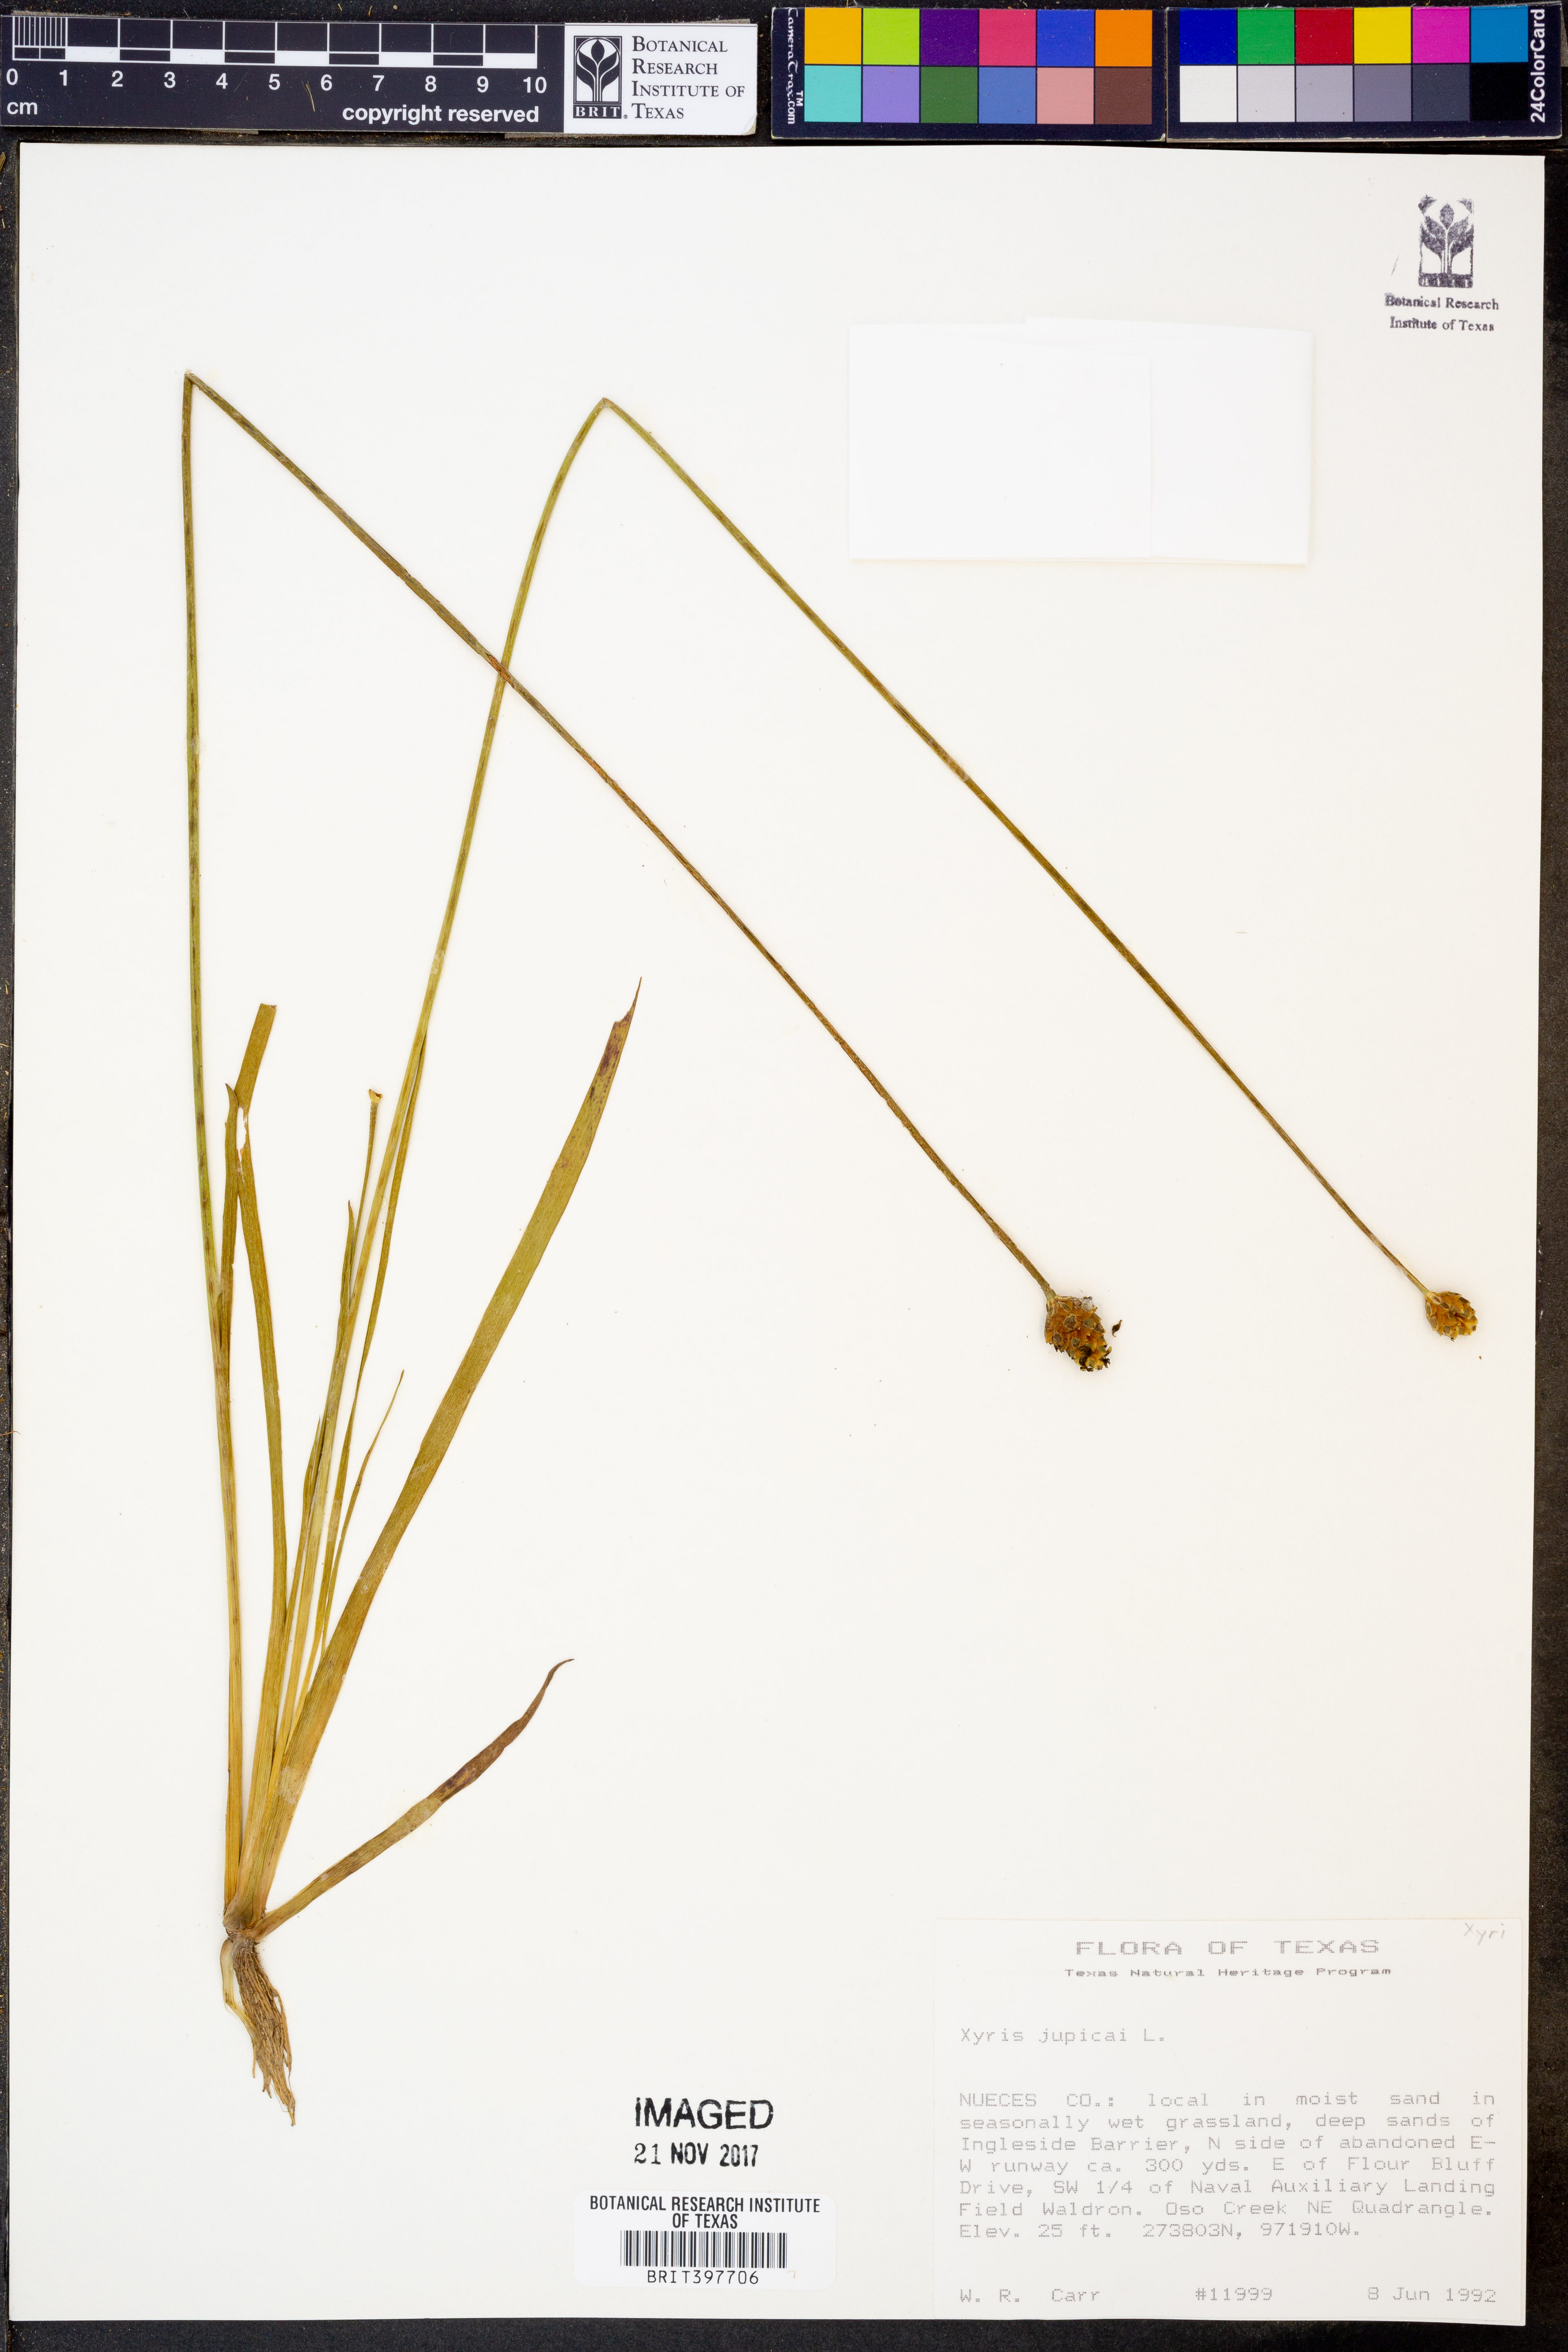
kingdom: Plantae
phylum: Tracheophyta
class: Liliopsida
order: Poales
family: Xyridaceae
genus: Xyris
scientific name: Xyris jupicai
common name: Richard's yelloweyed grass
